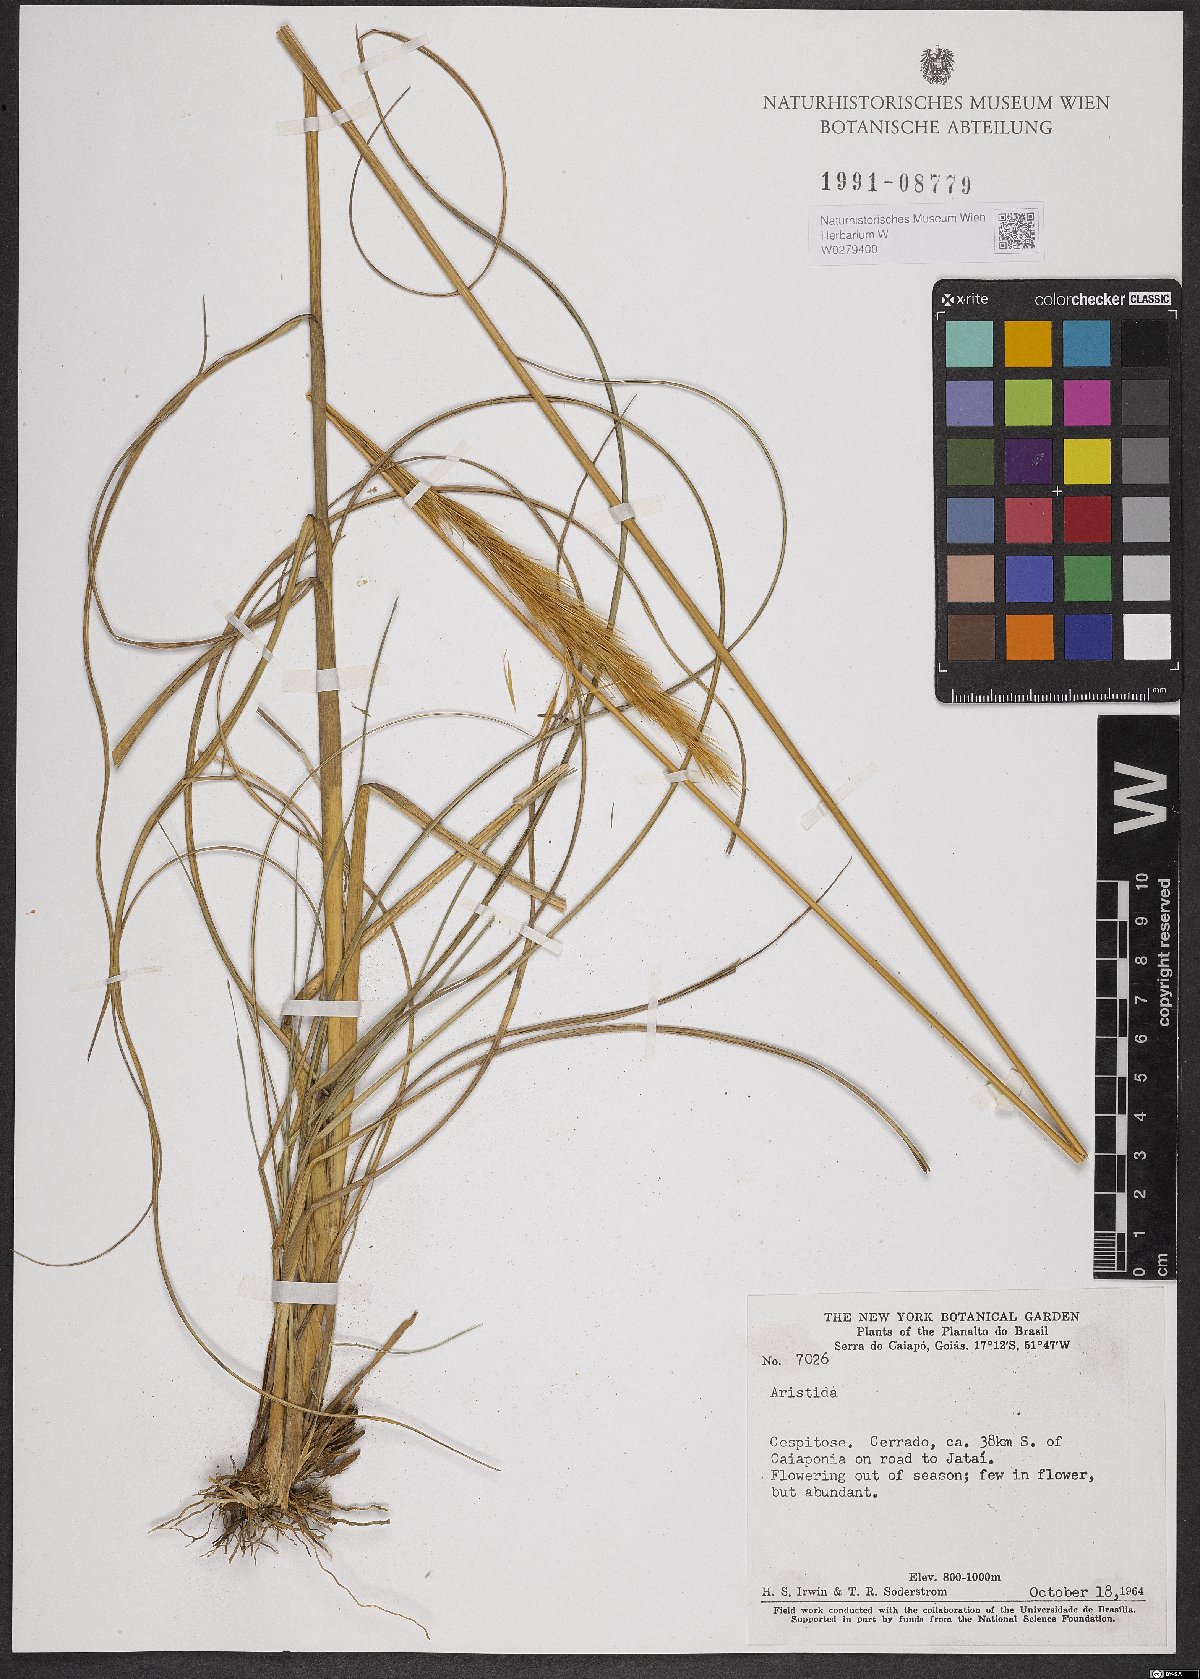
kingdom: Plantae
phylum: Tracheophyta
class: Liliopsida
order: Poales
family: Poaceae
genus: Aristida
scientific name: Aristida
